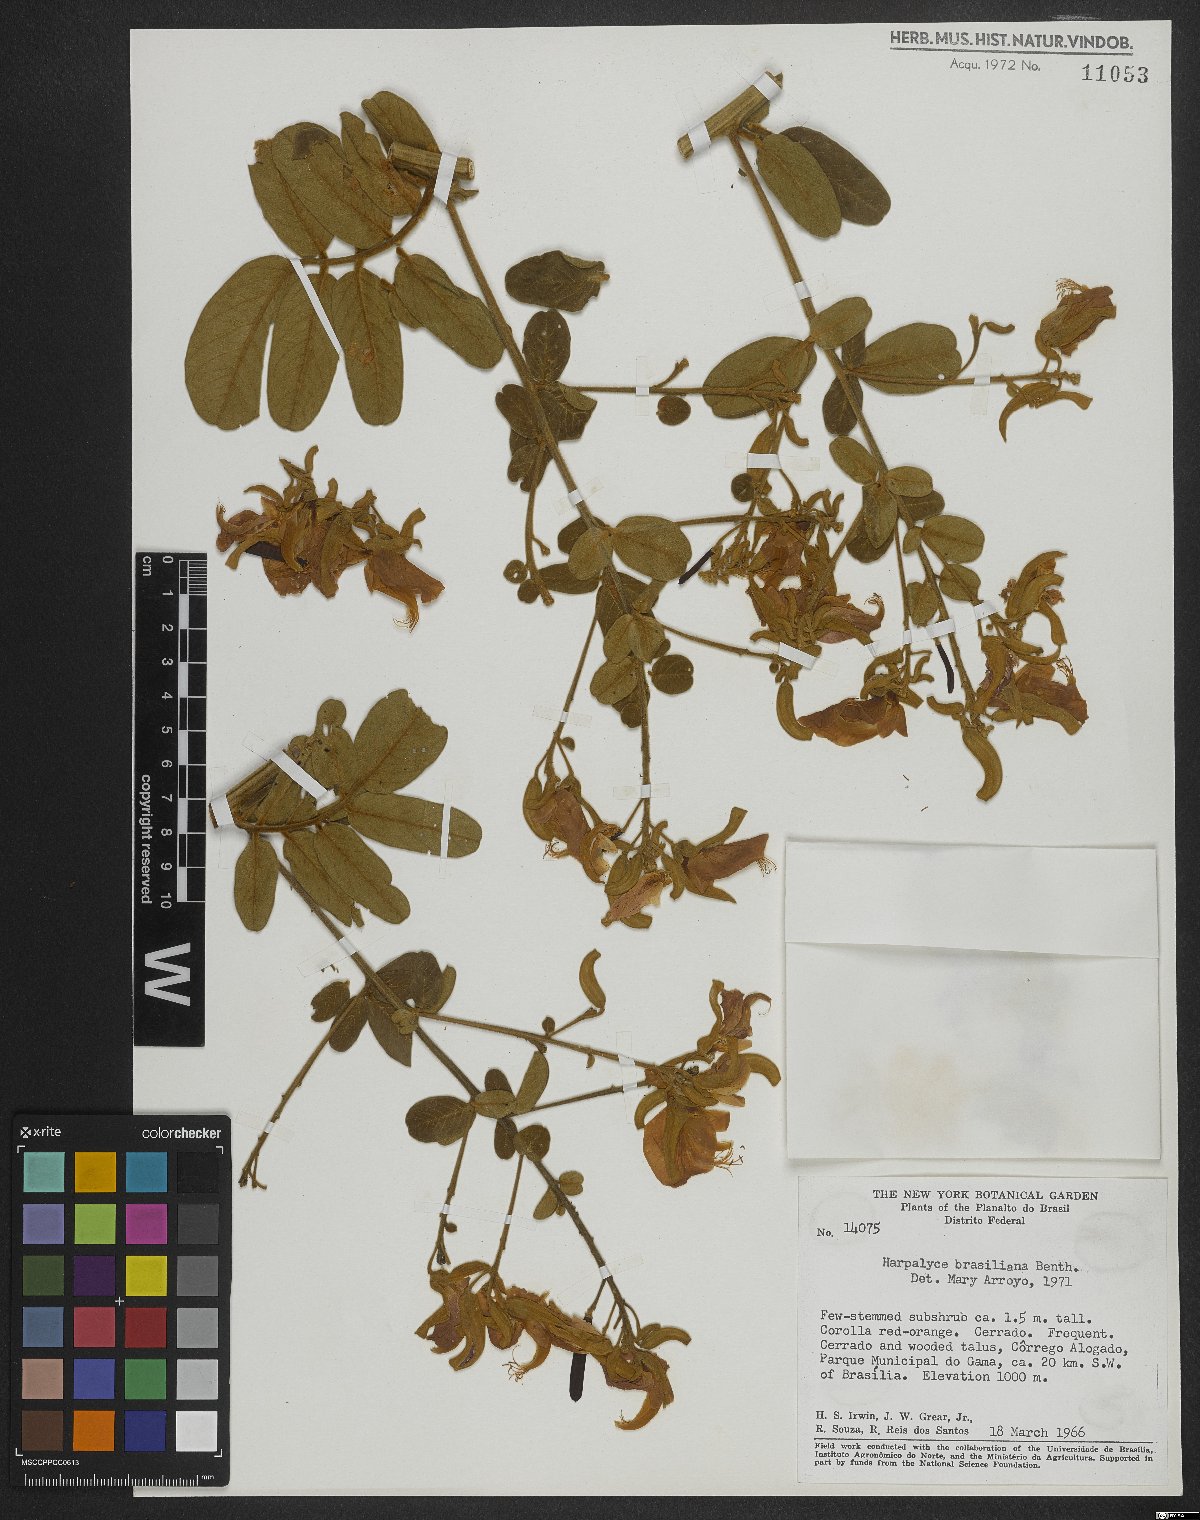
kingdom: Plantae
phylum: Tracheophyta
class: Magnoliopsida
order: Fabales
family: Fabaceae
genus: Harpalyce
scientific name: Harpalyce brasiliana
